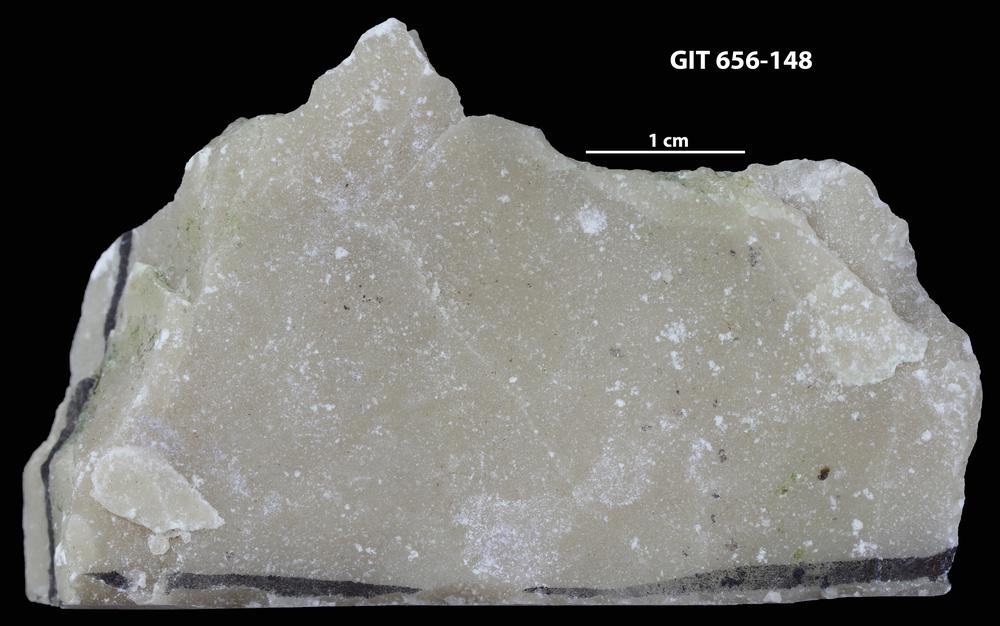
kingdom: Animalia
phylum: Porifera
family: Stromatoporidae
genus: Stromatopora
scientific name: Stromatopora
